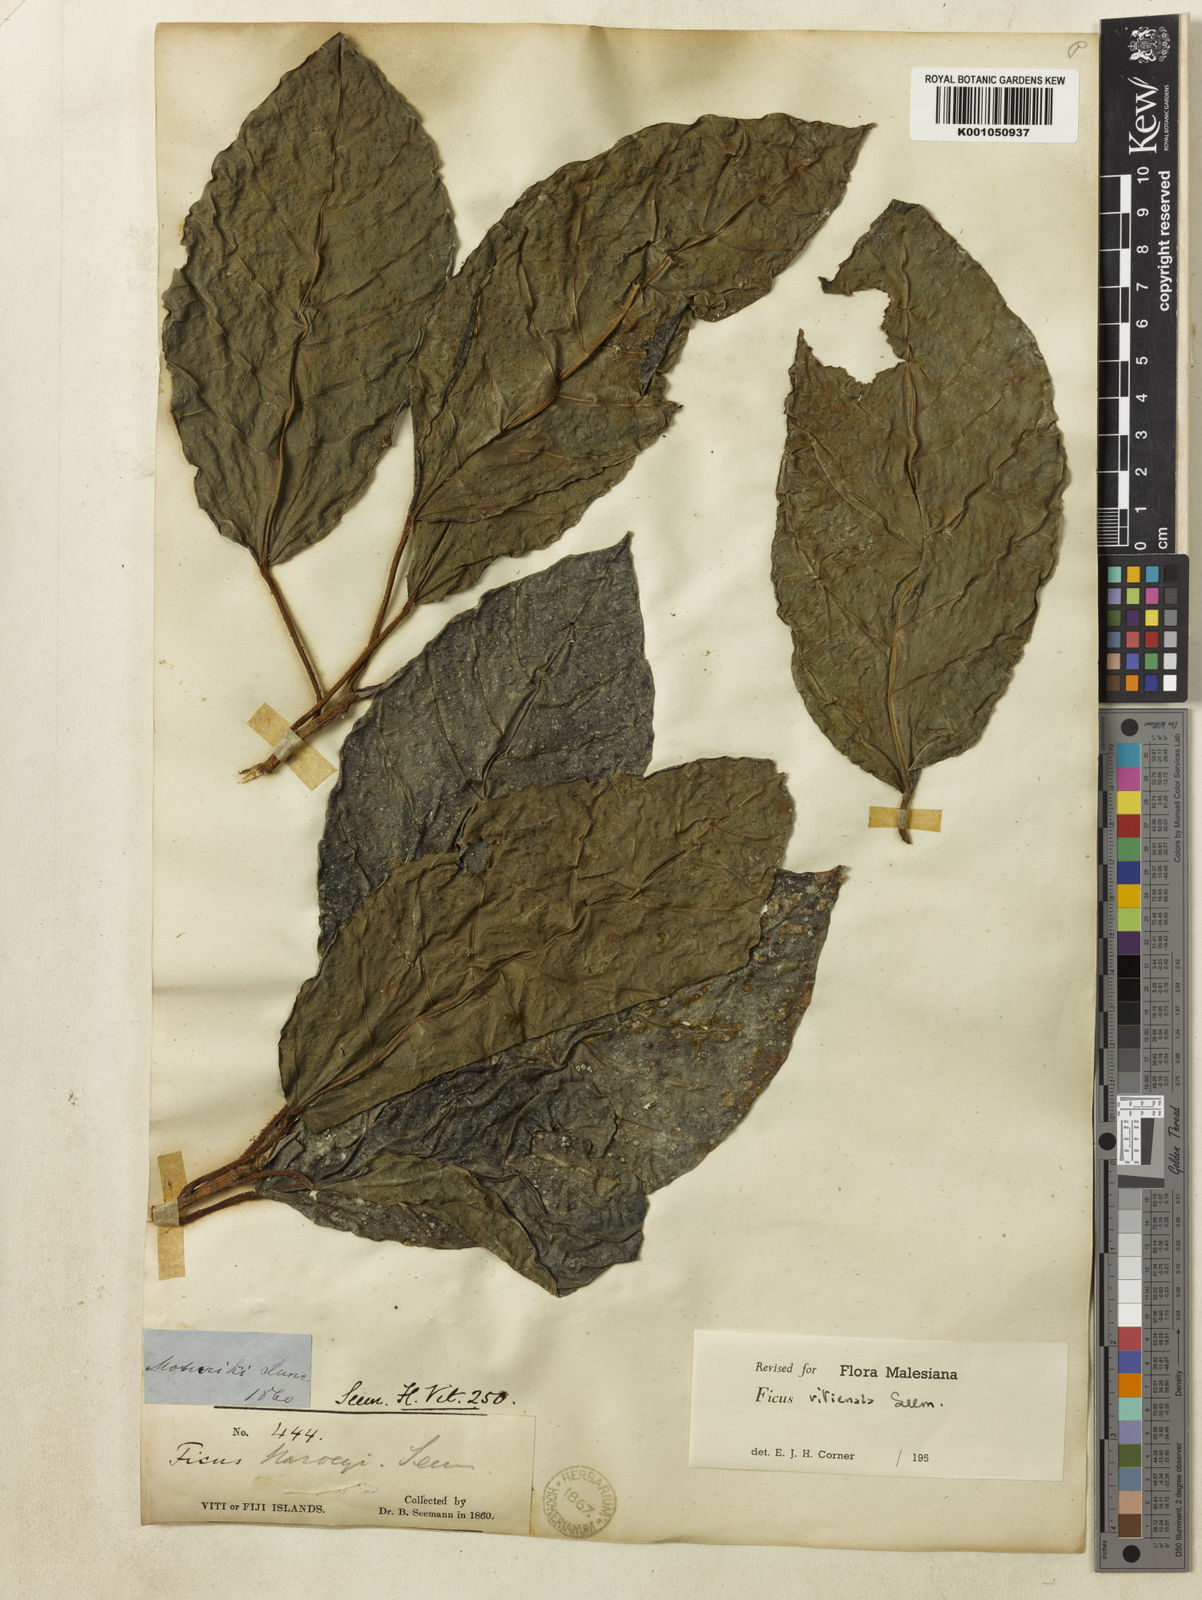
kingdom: Plantae
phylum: Tracheophyta
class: Magnoliopsida
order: Rosales
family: Moraceae
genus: Ficus
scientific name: Ficus vitiensis
